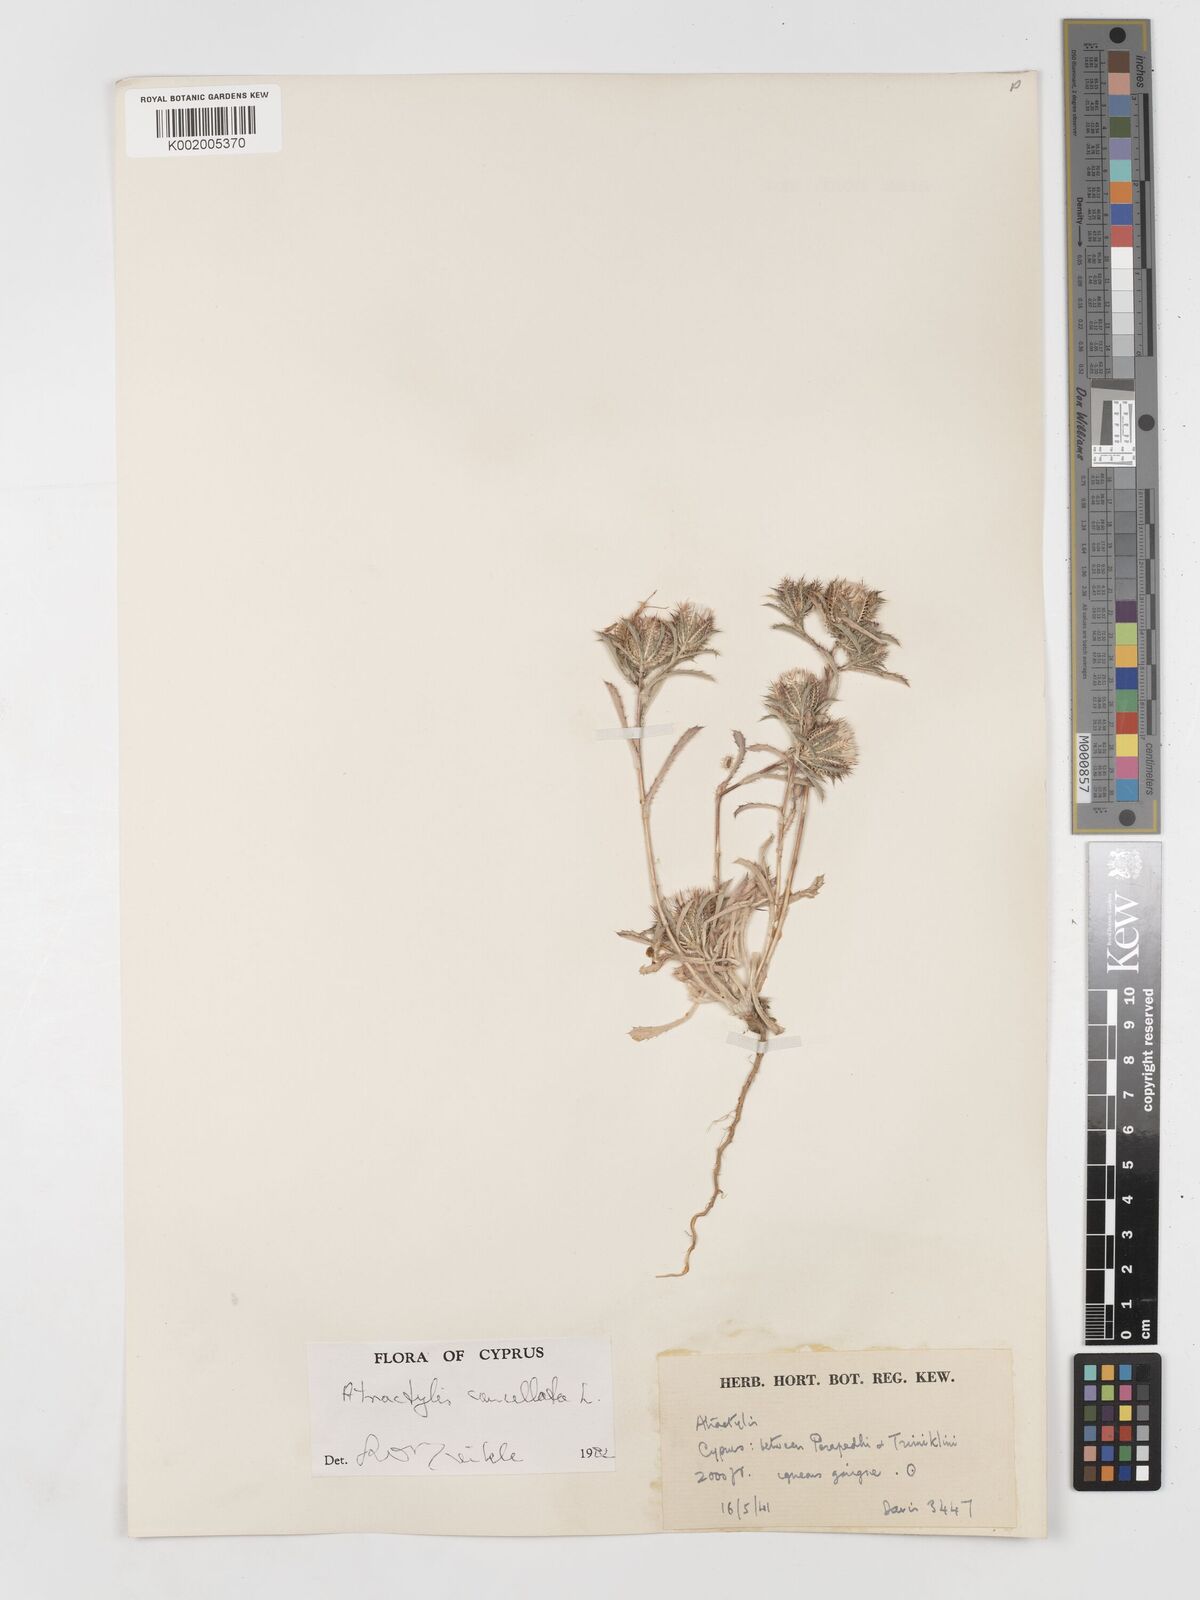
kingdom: Plantae
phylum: Tracheophyta
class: Magnoliopsida
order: Asterales
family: Asteraceae
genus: Atractylis
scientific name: Atractylis cancellata
